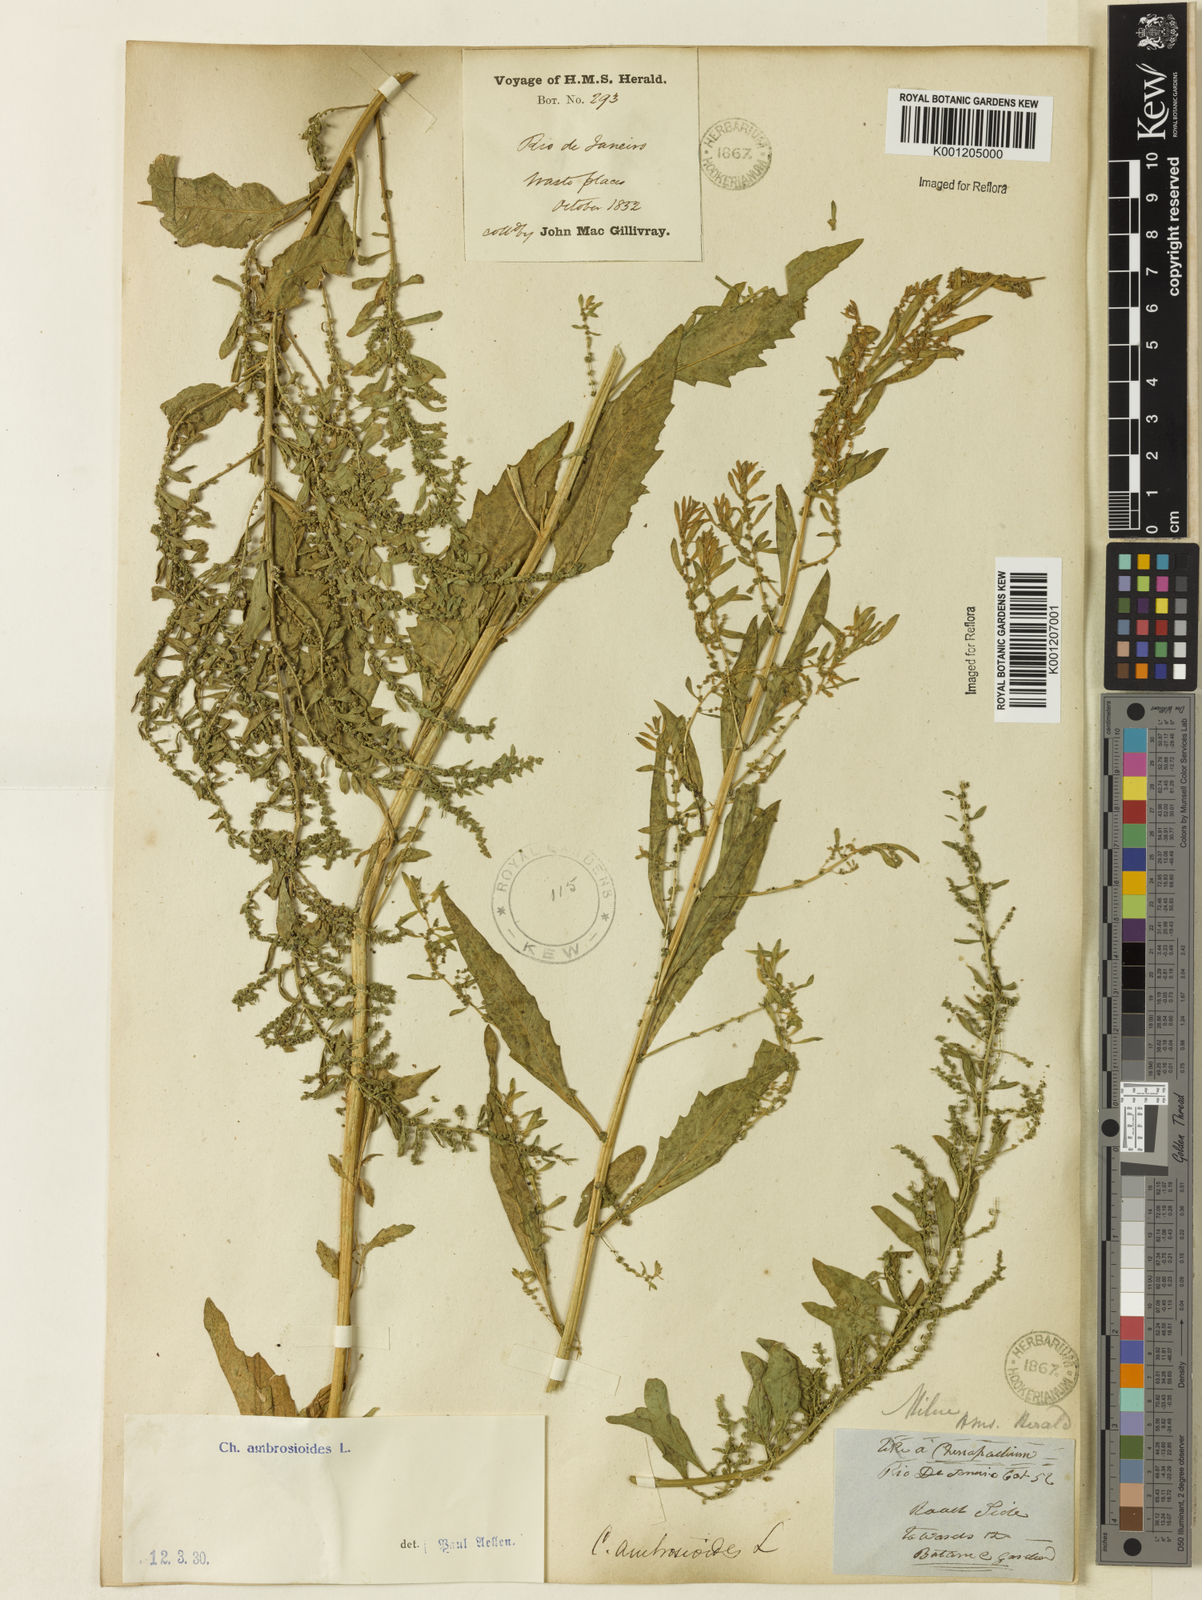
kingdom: Plantae
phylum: Tracheophyta
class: Magnoliopsida
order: Caryophyllales
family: Amaranthaceae
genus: Dysphania
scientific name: Dysphania ambrosioides
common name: Wormseed
